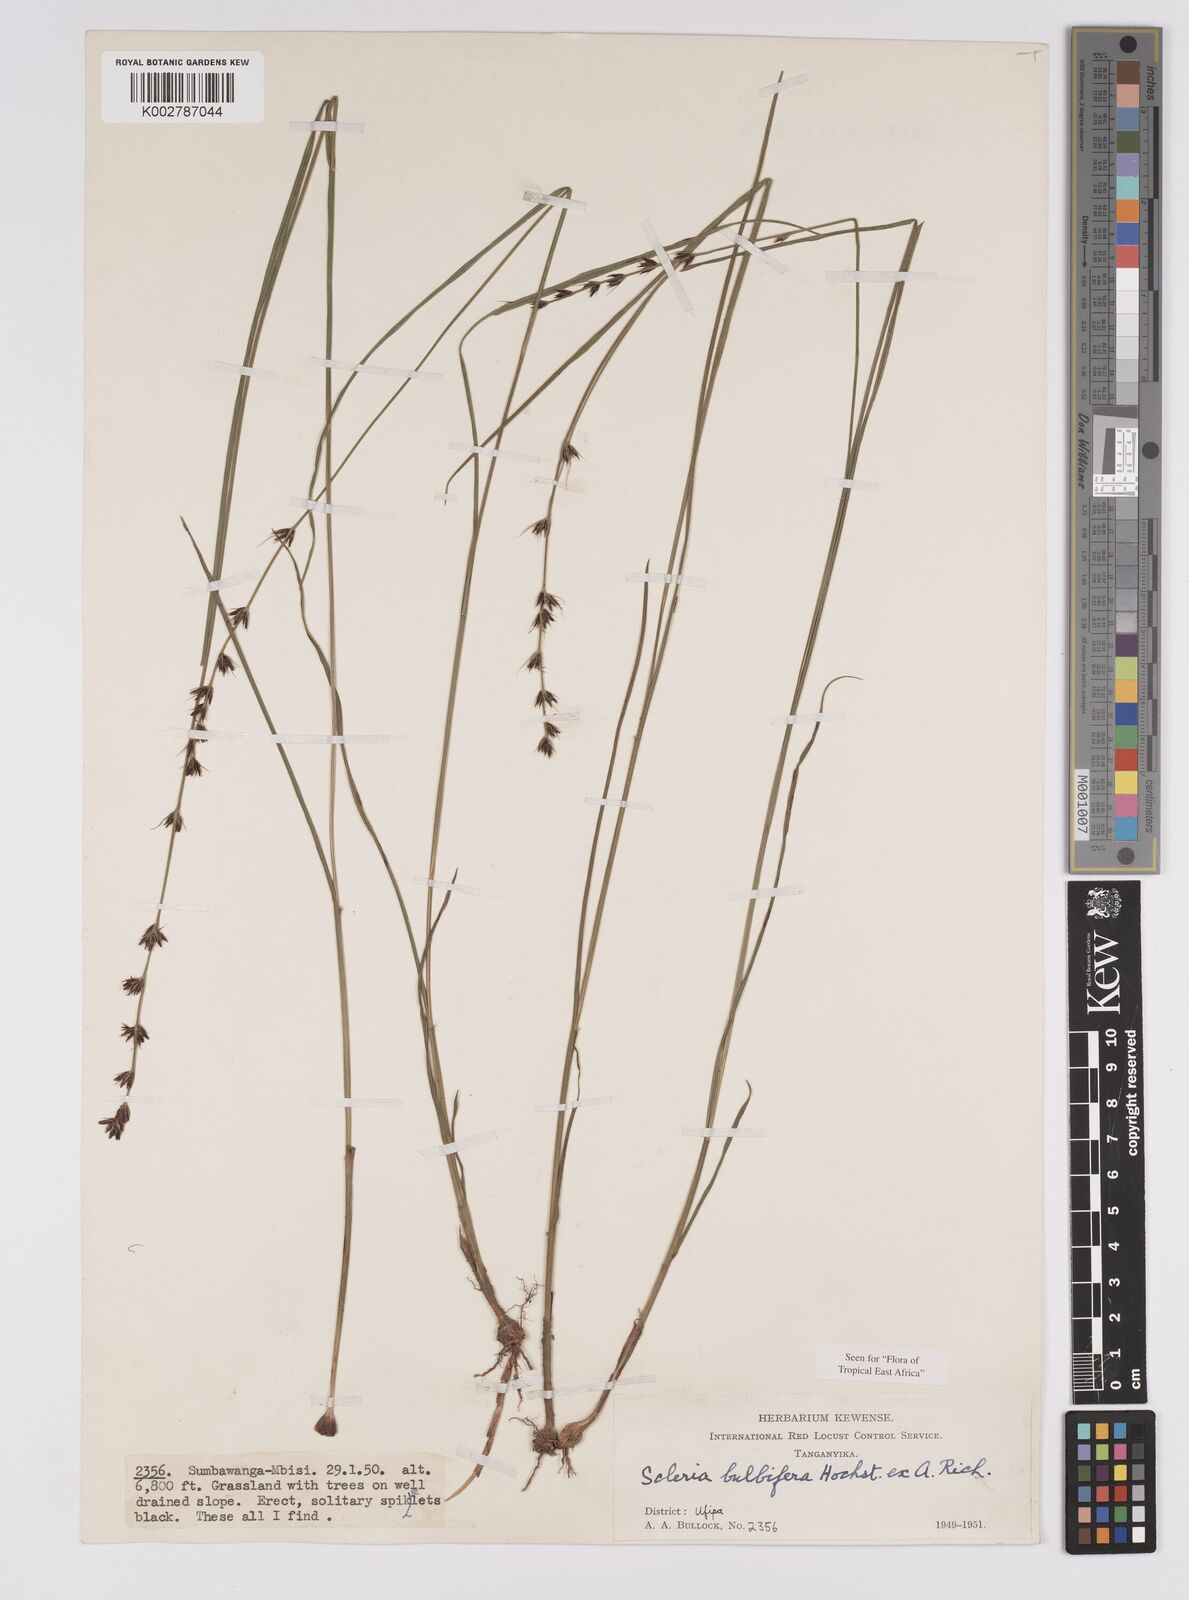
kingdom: Plantae
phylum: Tracheophyta
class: Liliopsida
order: Poales
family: Cyperaceae
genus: Scleria
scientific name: Scleria bulbifera
